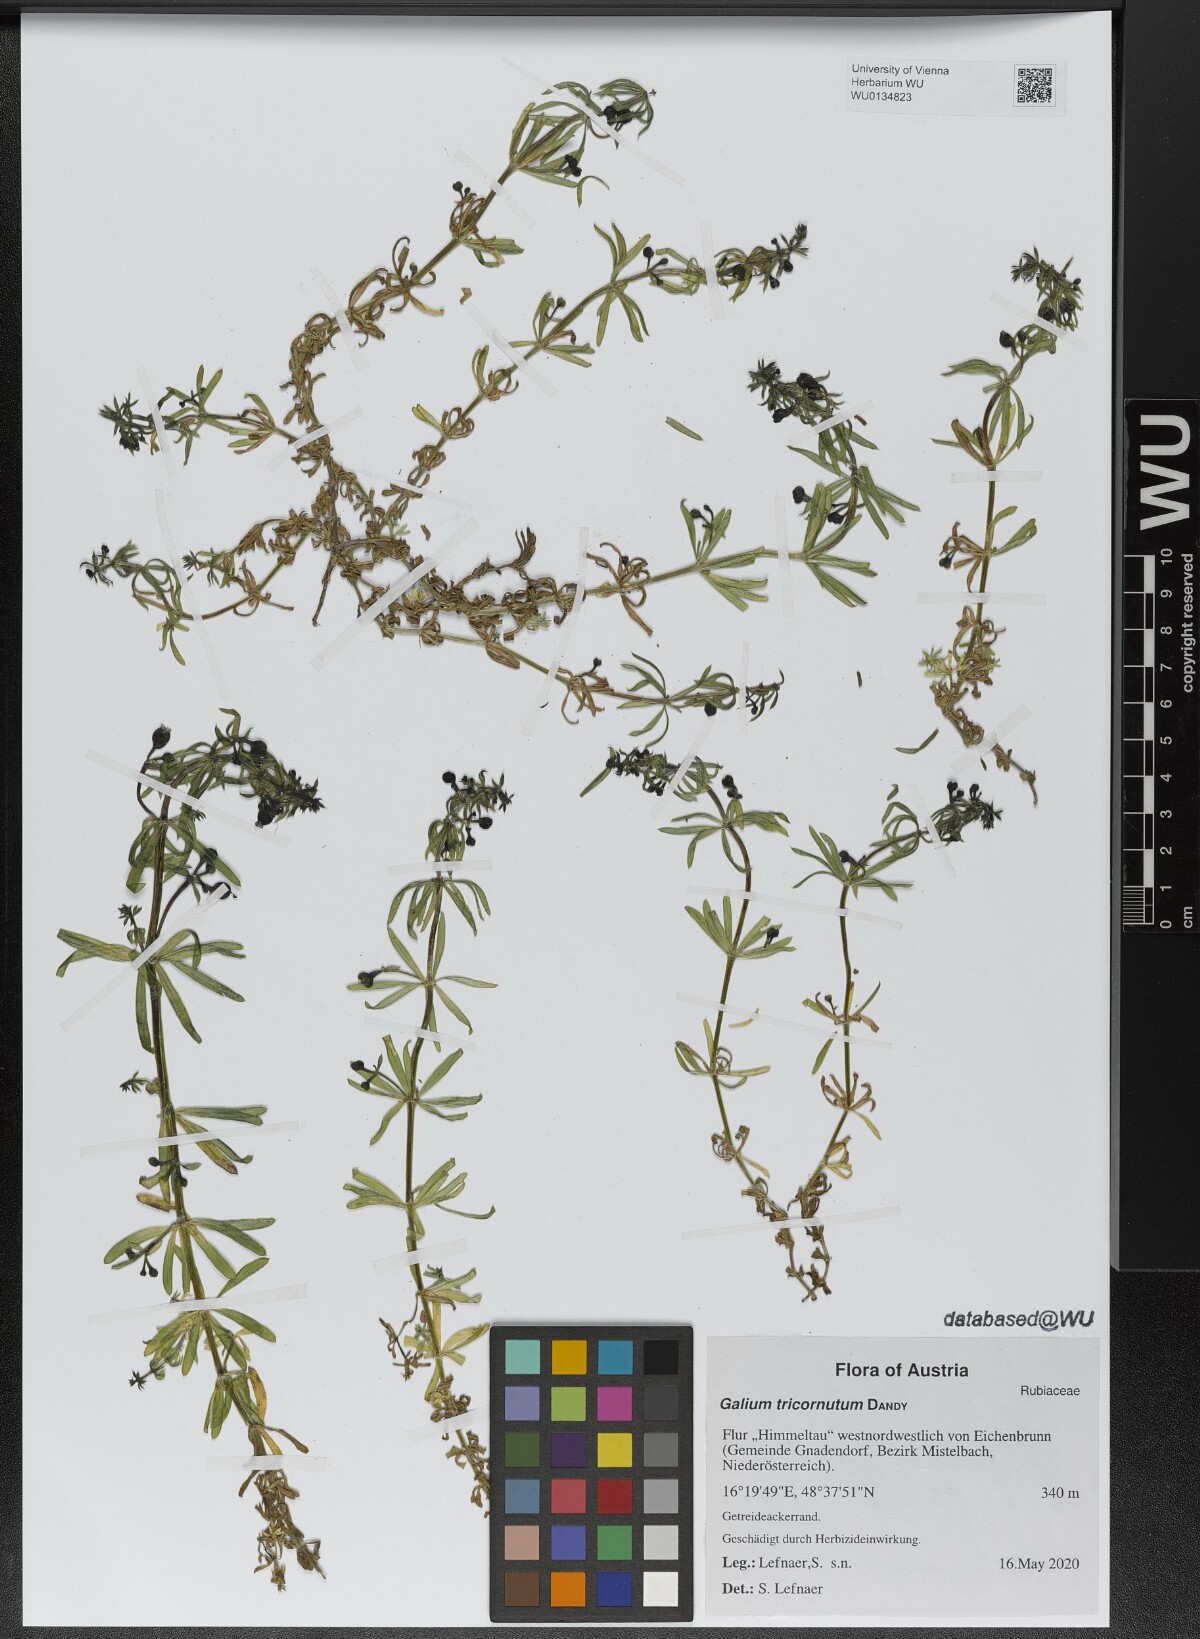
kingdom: Plantae
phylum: Tracheophyta
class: Magnoliopsida
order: Gentianales
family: Rubiaceae
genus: Galium
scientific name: Galium tricornutum
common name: Corn cleavers
